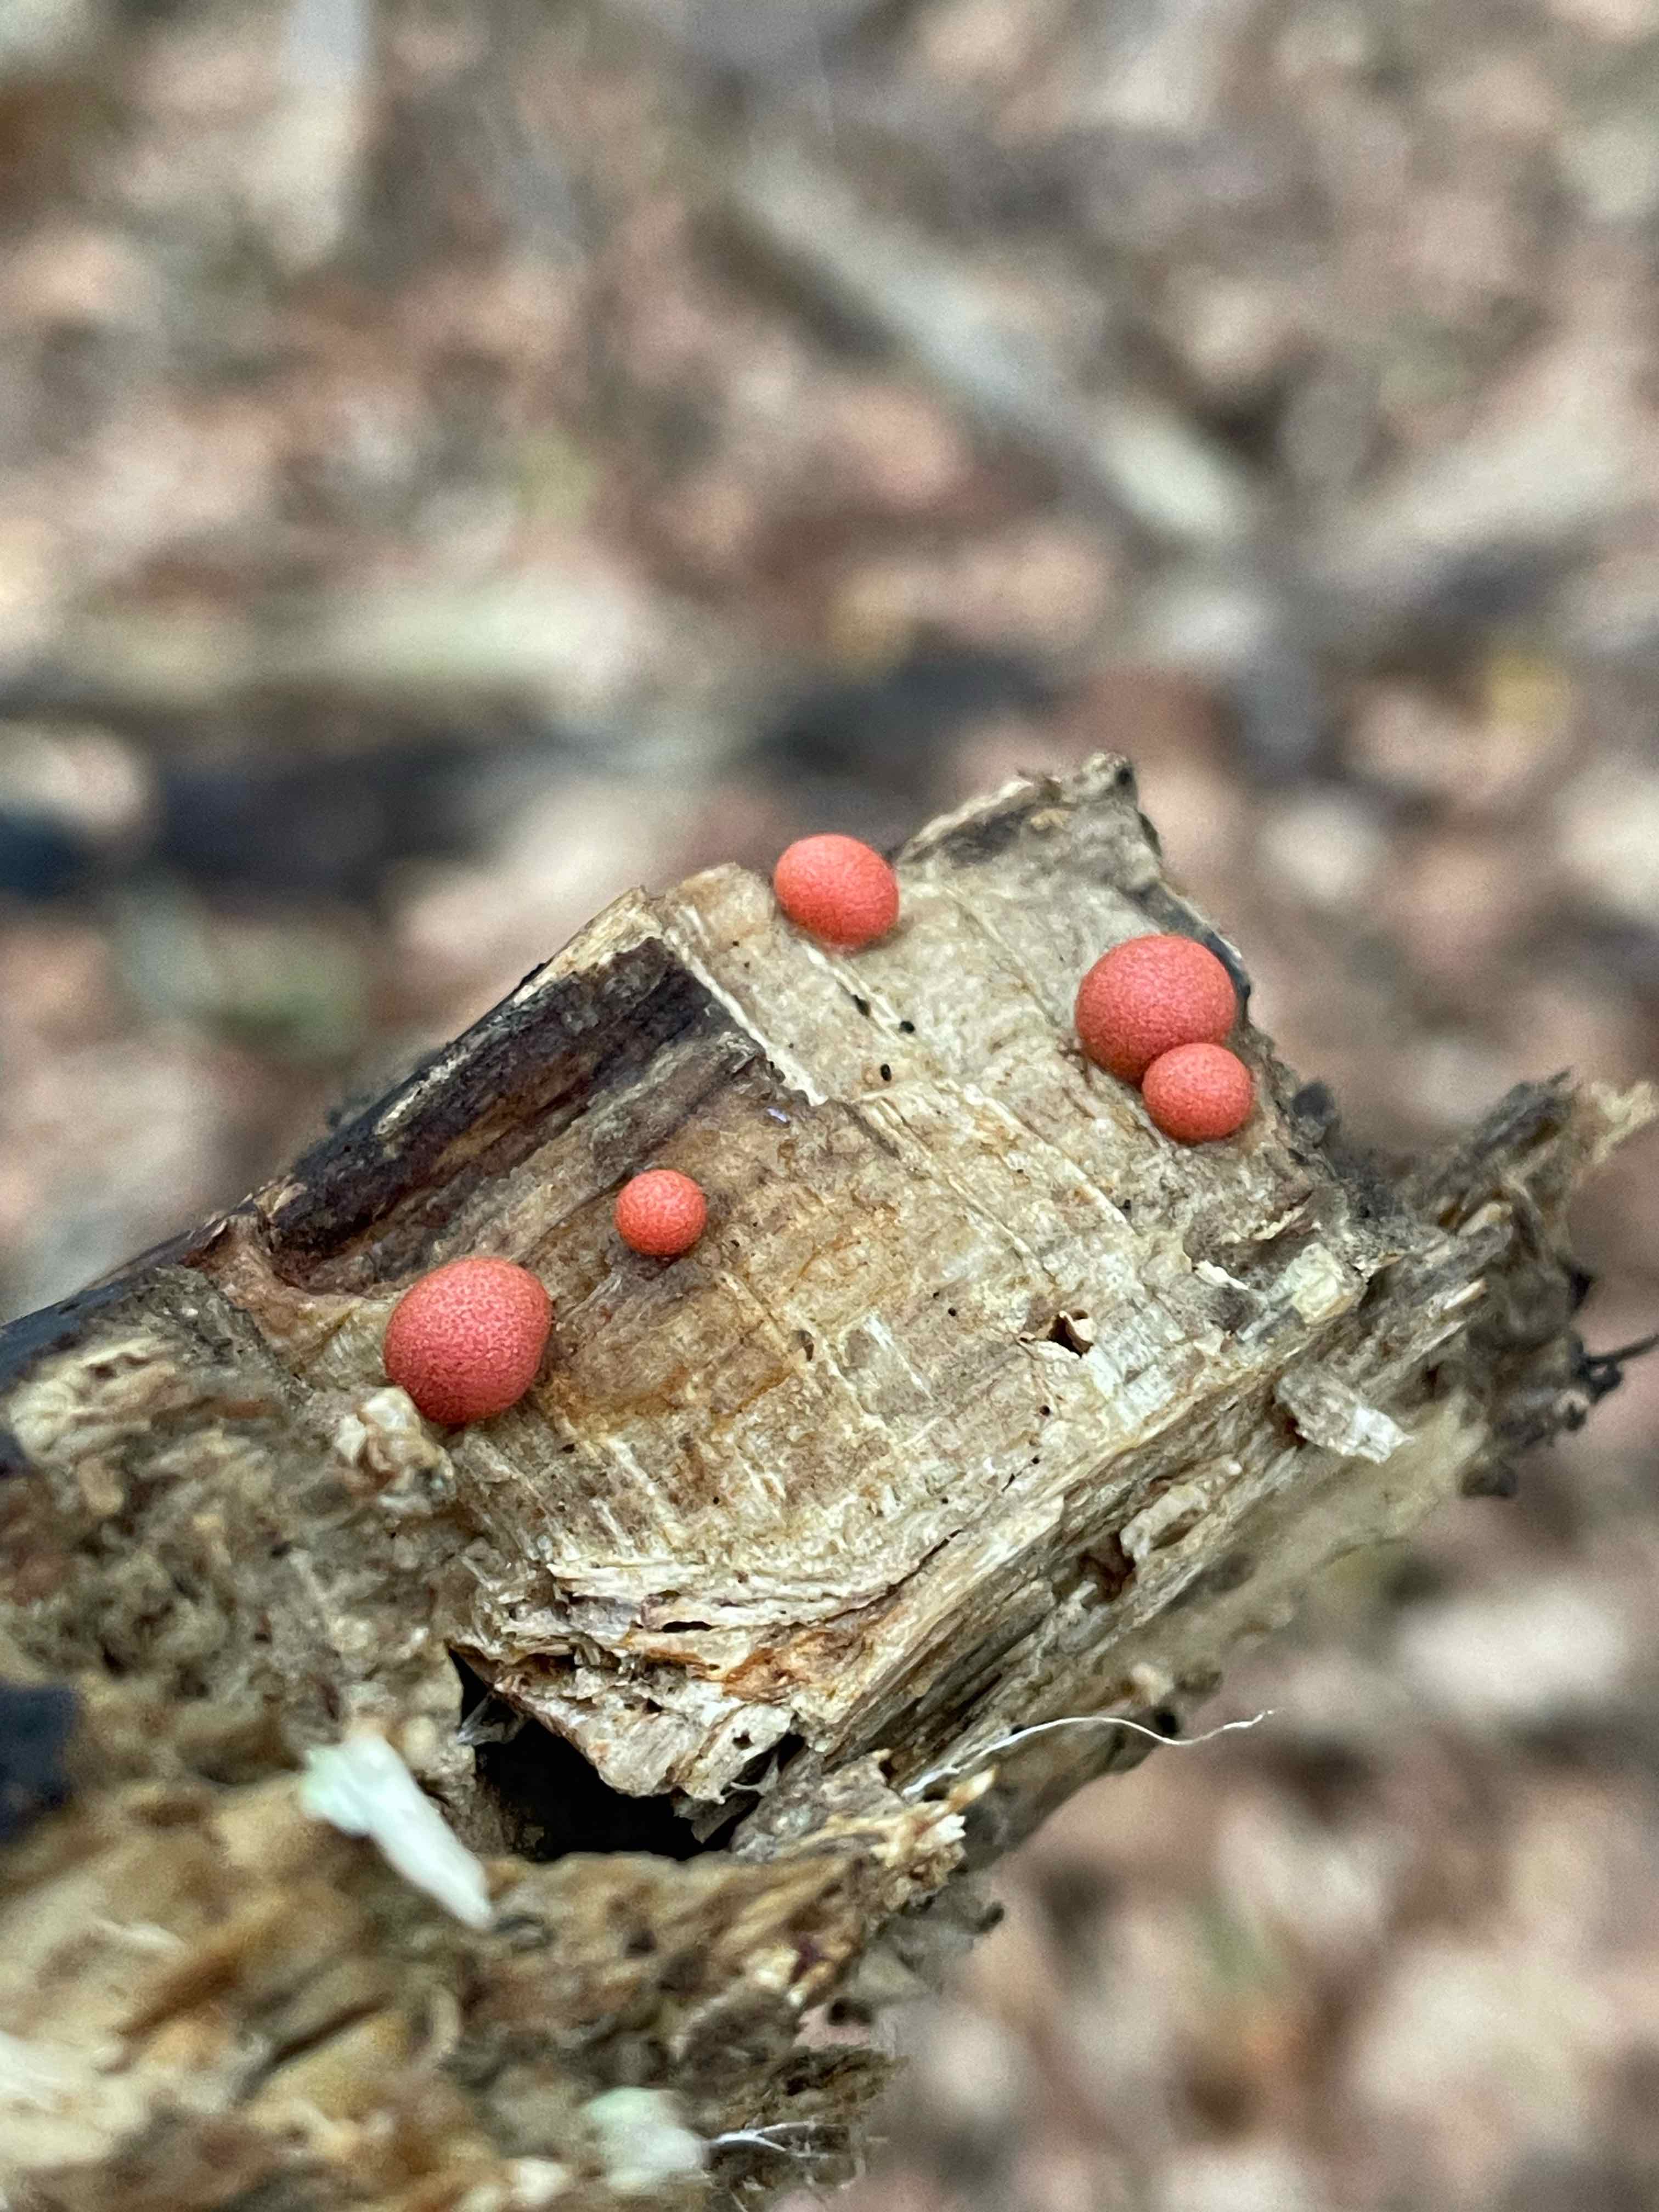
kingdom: Protozoa
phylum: Mycetozoa
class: Myxomycetes
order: Cribrariales
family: Tubiferaceae
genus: Lycogala
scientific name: Lycogala epidendrum
